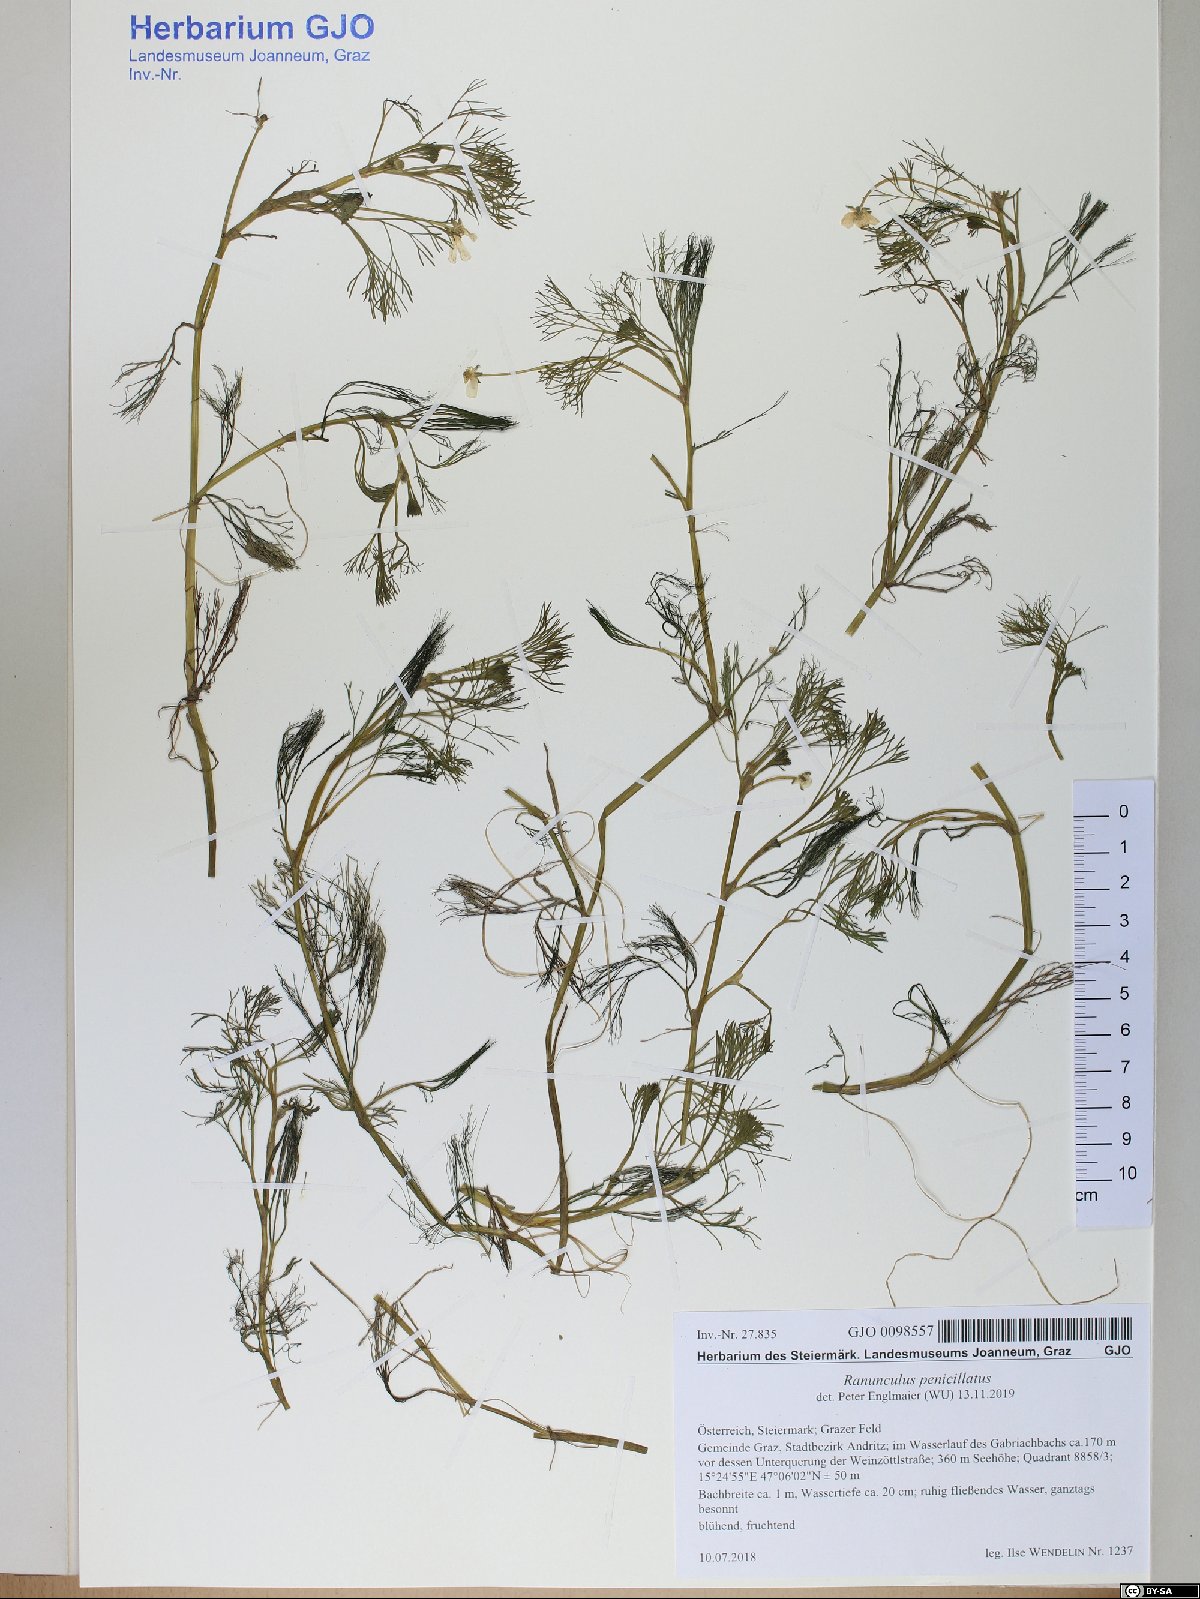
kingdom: Plantae
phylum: Tracheophyta
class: Magnoliopsida
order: Ranunculales
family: Ranunculaceae
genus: Ranunculus
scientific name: Ranunculus penicillatus
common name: Stream water-crowfoot
